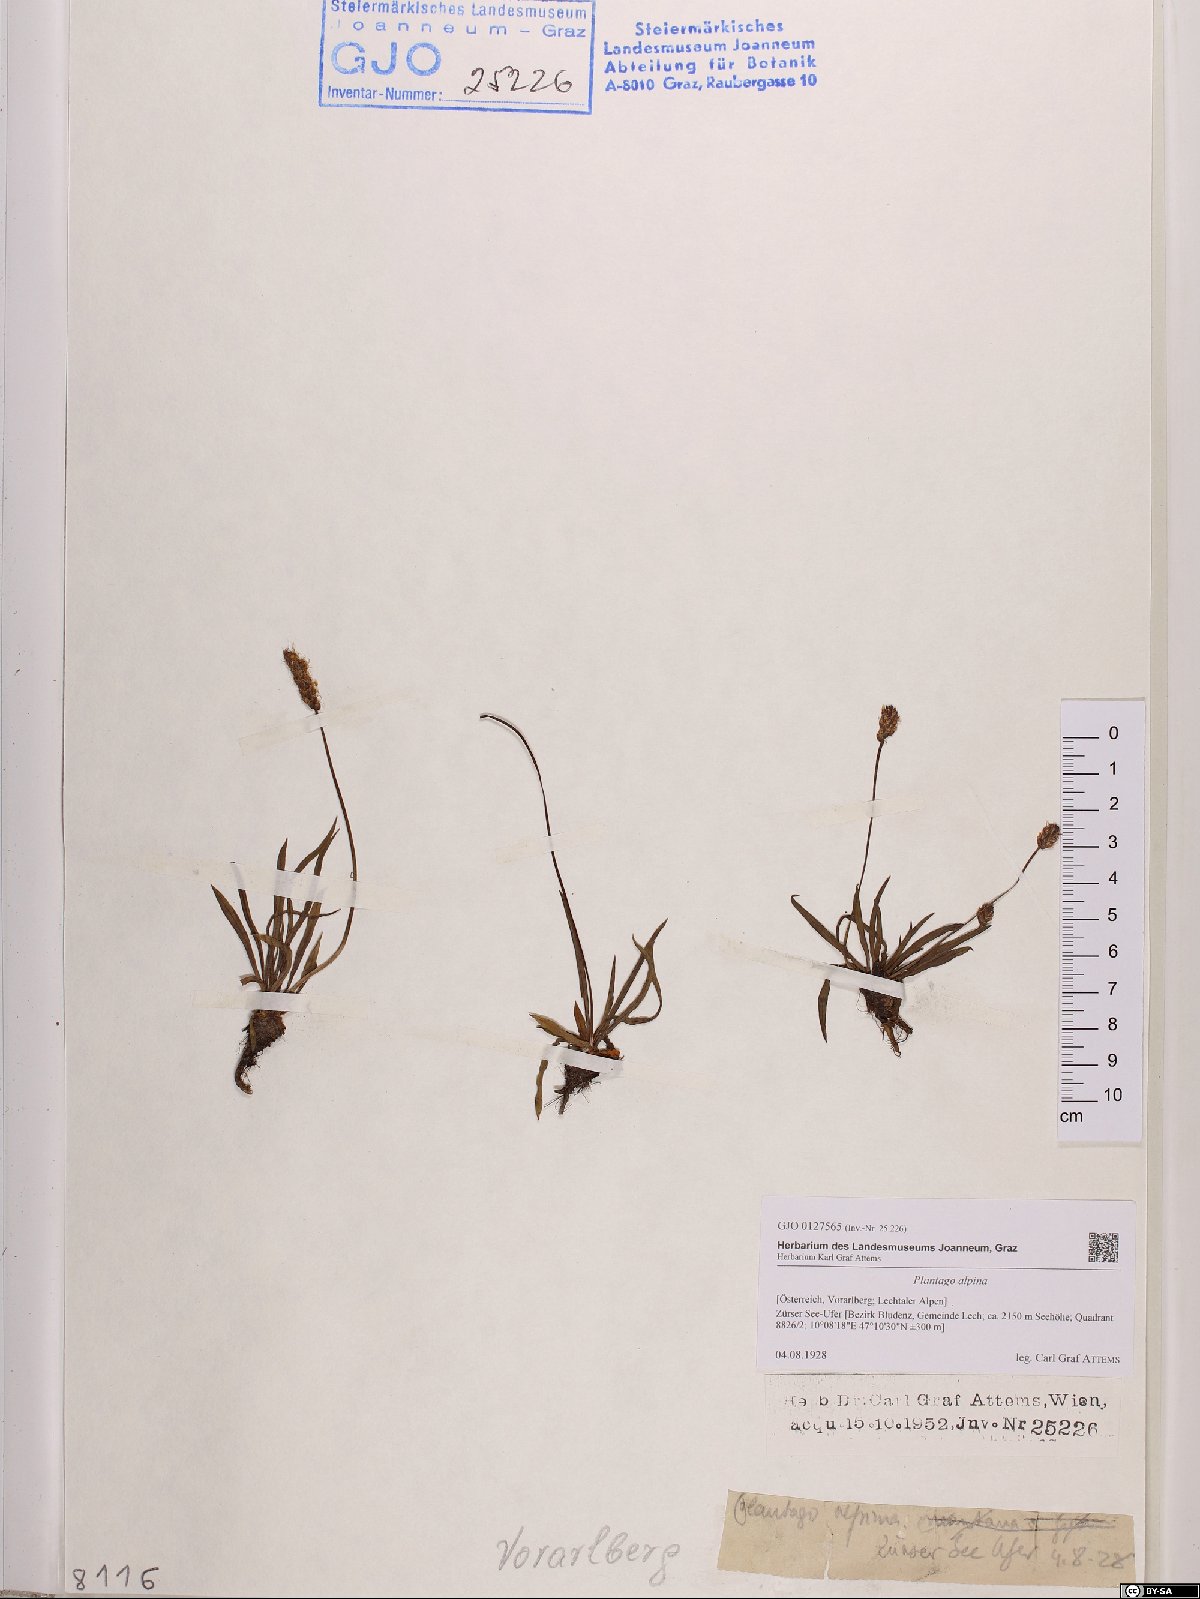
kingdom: Plantae
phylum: Tracheophyta
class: Magnoliopsida
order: Lamiales
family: Plantaginaceae
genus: Plantago
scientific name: Plantago alpina
